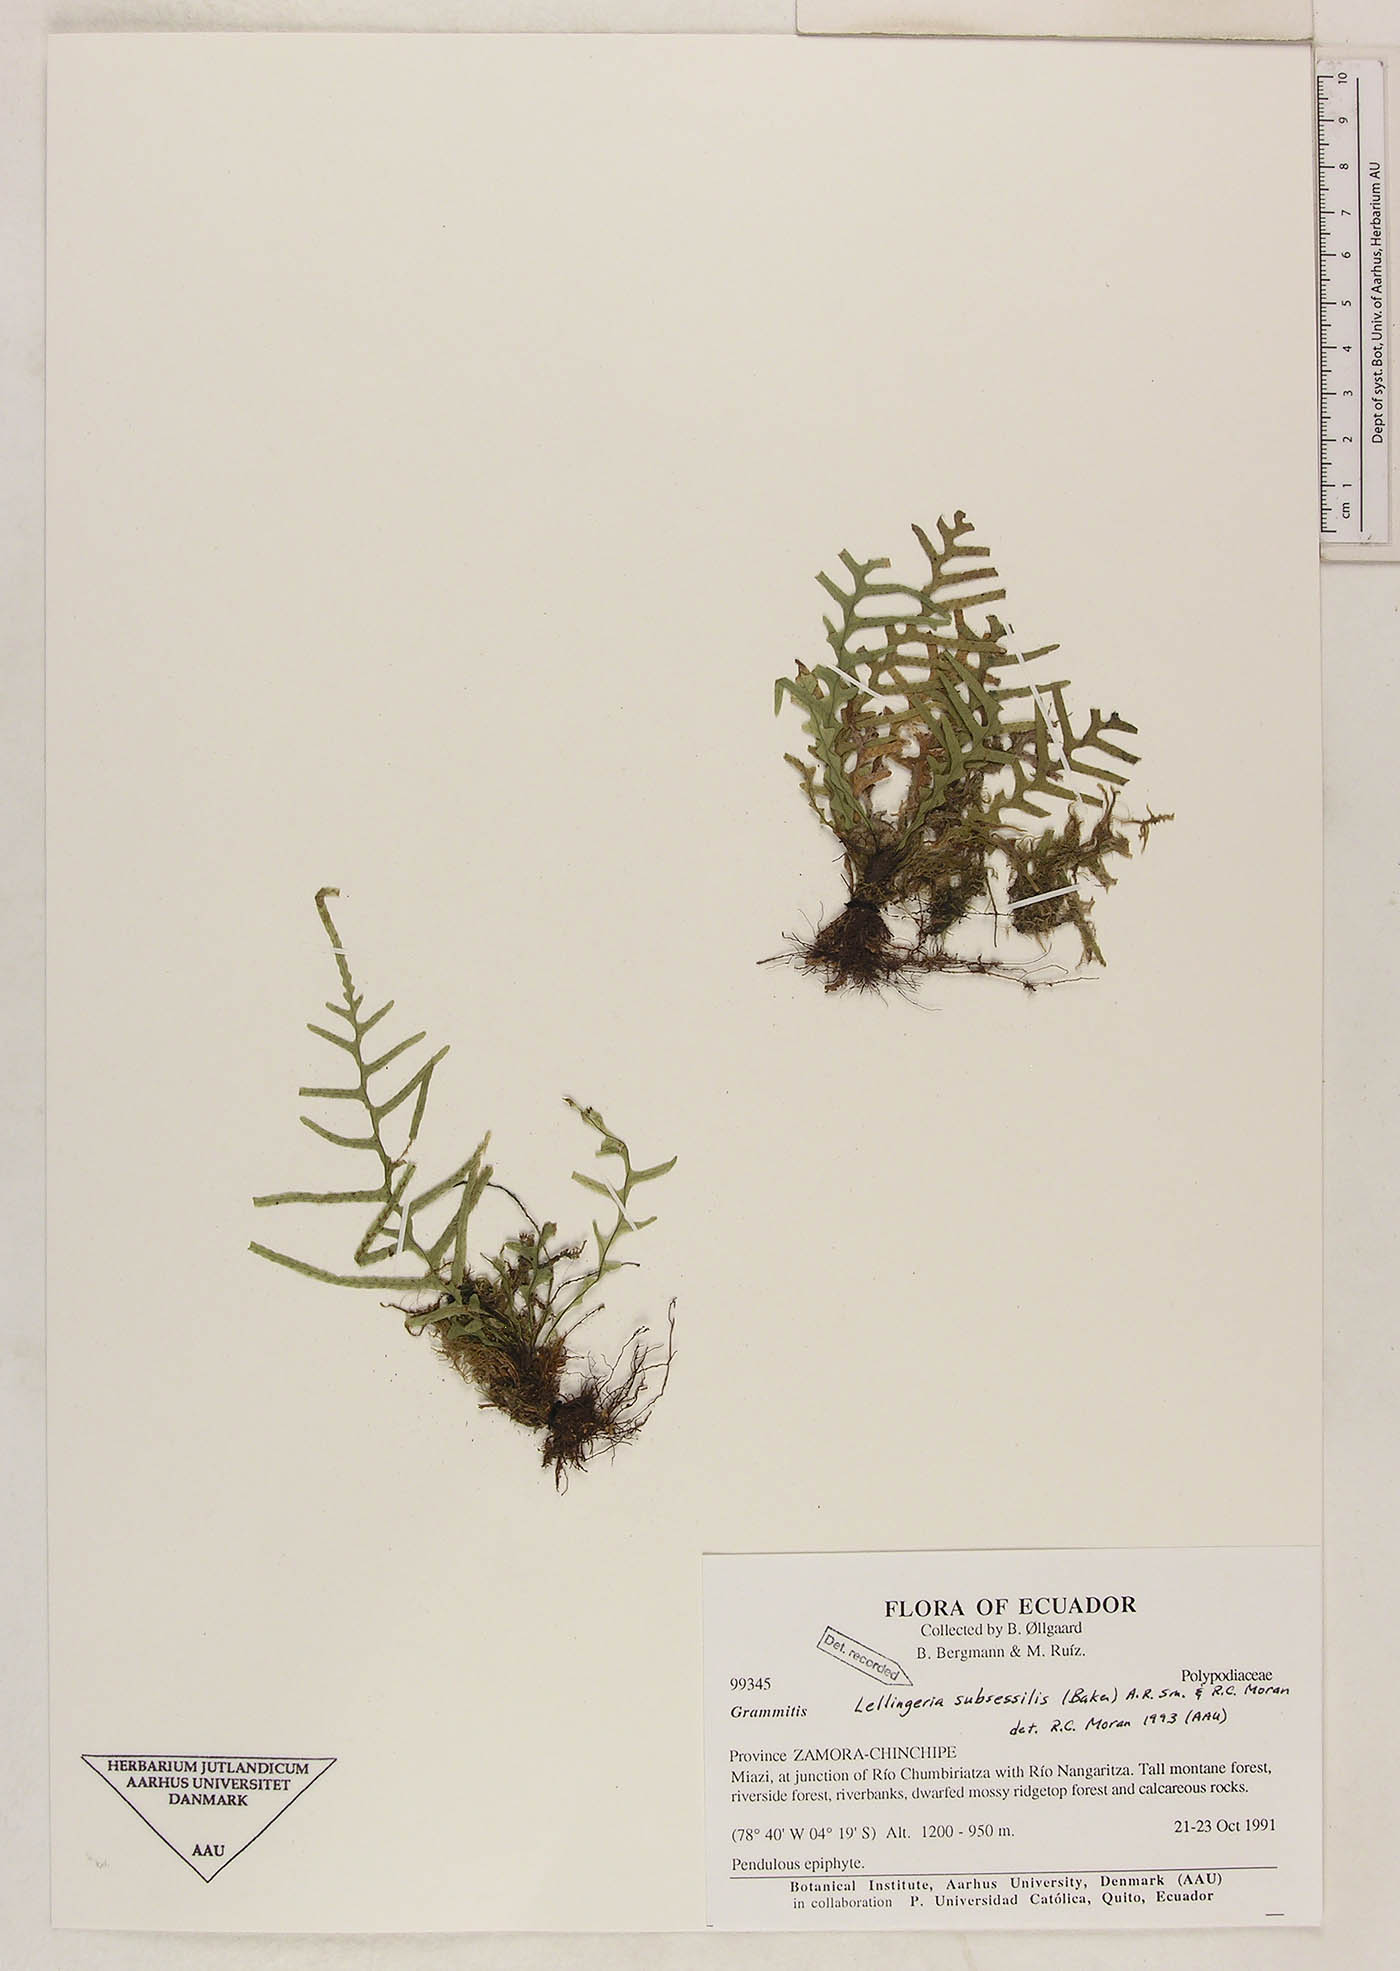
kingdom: Plantae
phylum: Tracheophyta
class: Polypodiopsida
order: Polypodiales
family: Polypodiaceae
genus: Lellingeria
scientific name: Lellingeria subsessilis
